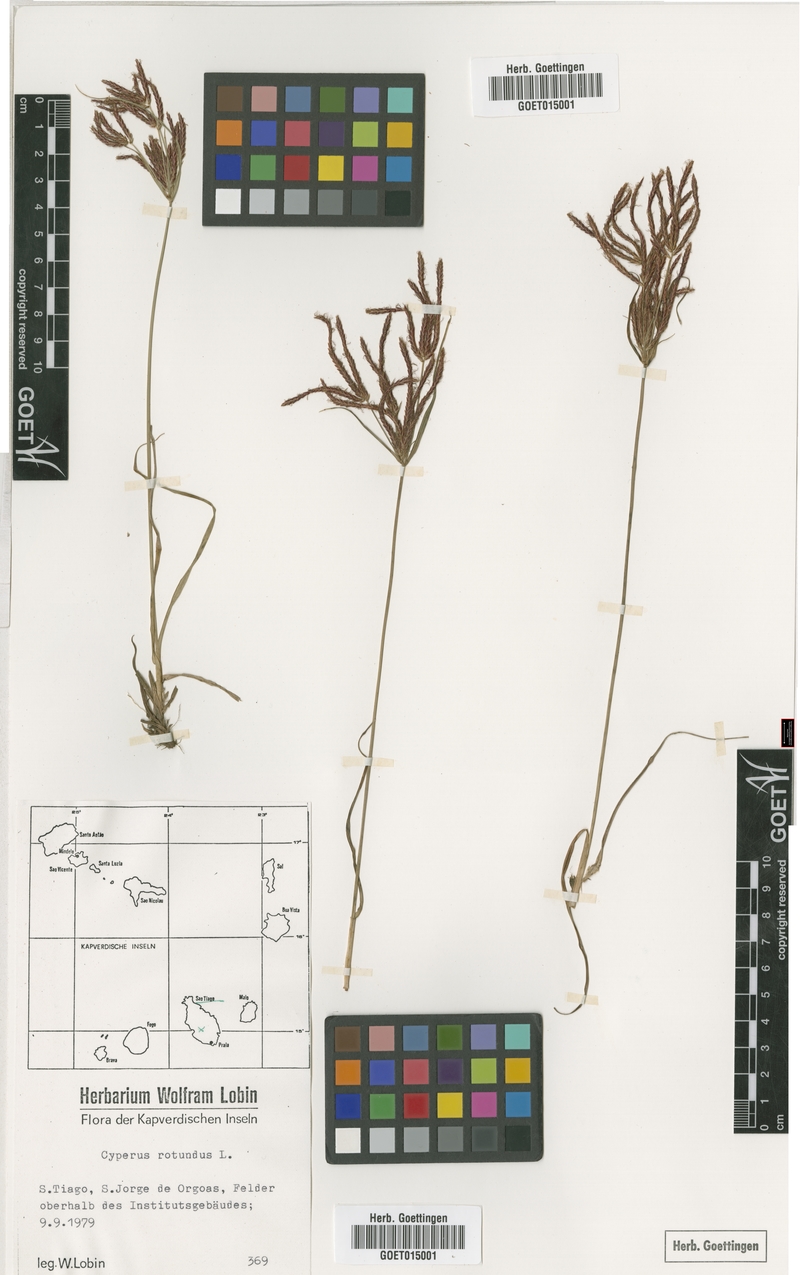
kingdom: Plantae
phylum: Tracheophyta
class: Liliopsida
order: Poales
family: Cyperaceae
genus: Cyperus
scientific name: Cyperus rotundus
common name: Nutgrass
